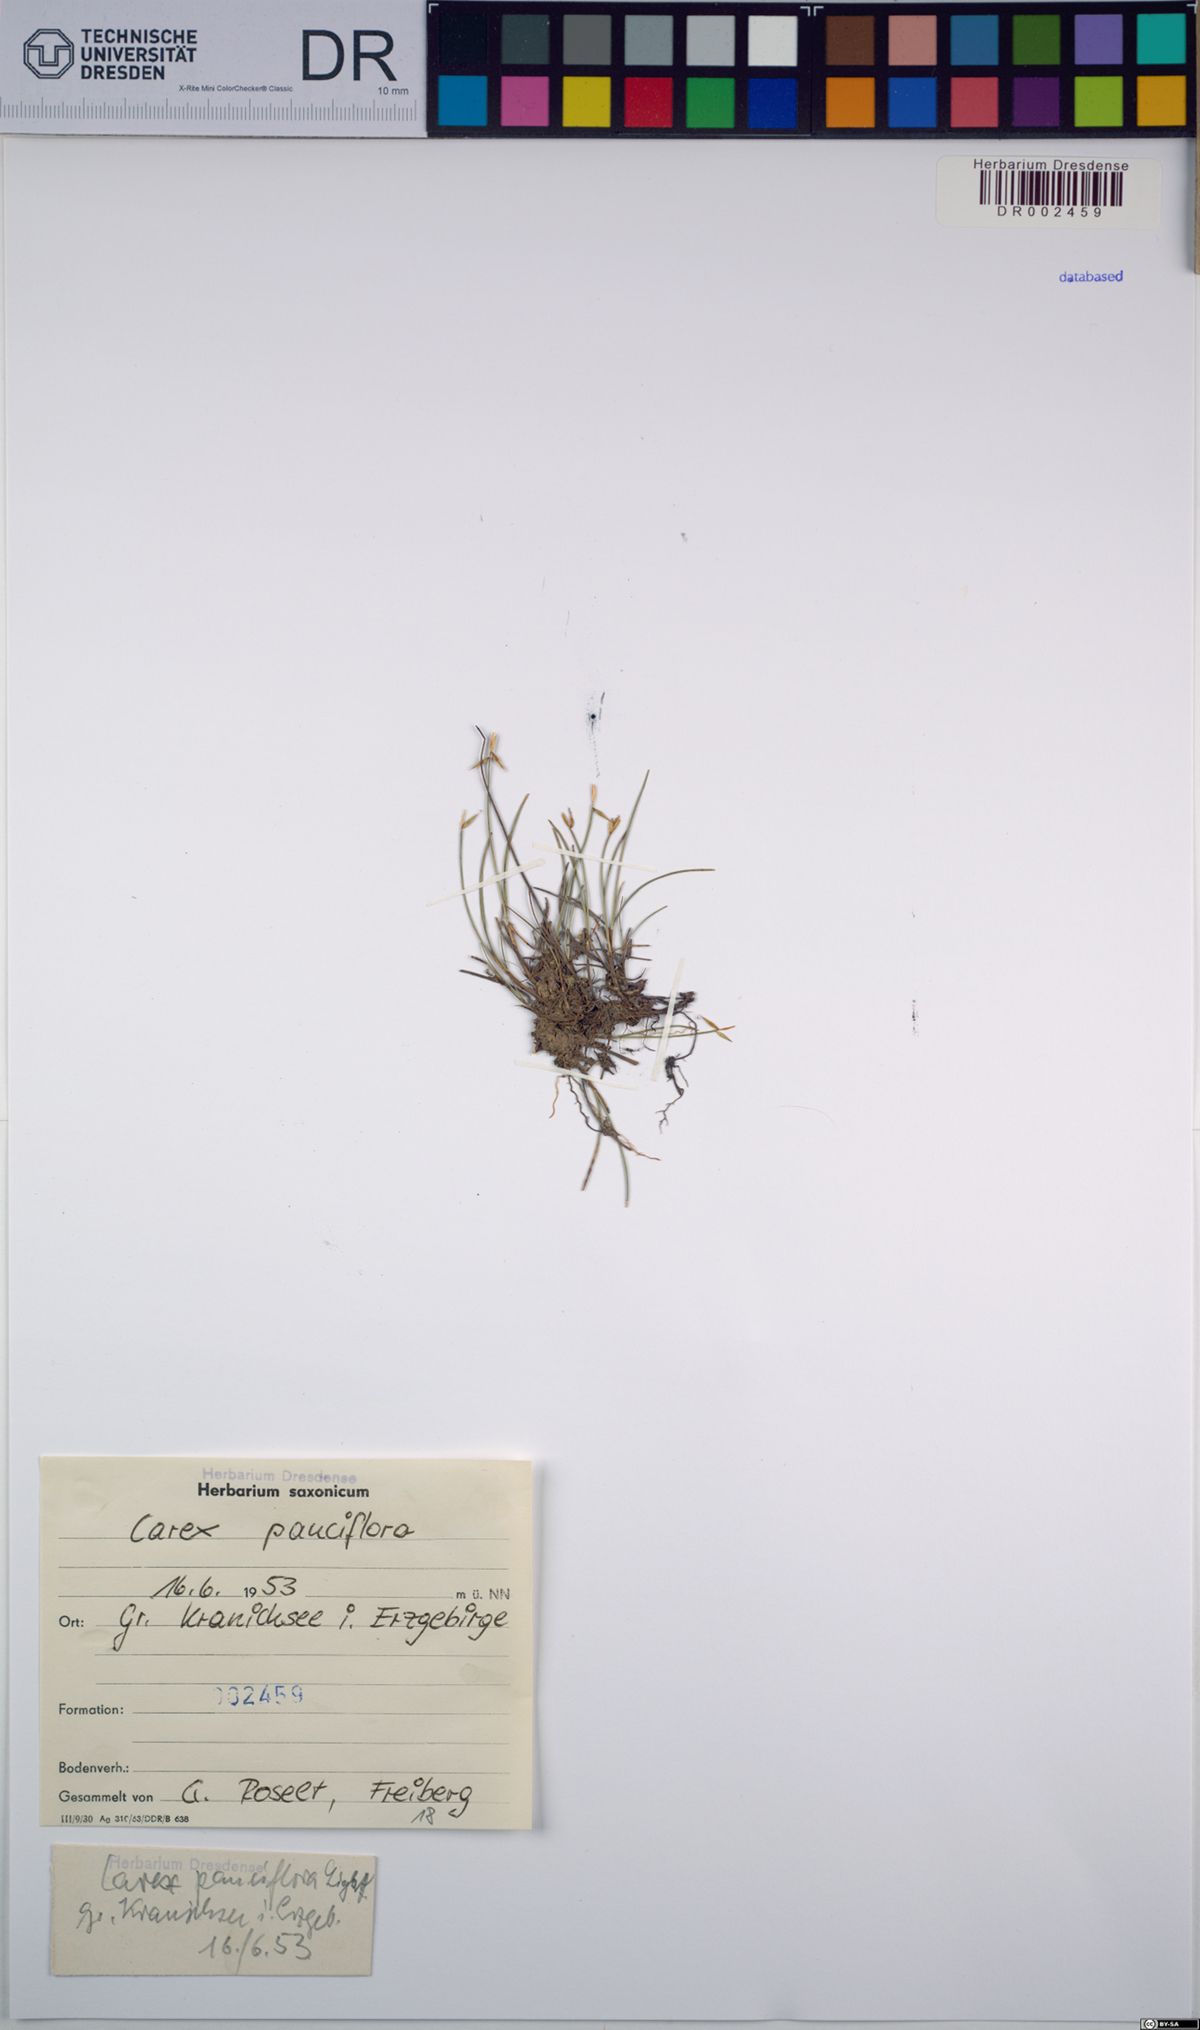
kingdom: Plantae
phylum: Tracheophyta
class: Liliopsida
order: Poales
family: Cyperaceae
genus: Carex
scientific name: Carex pauciflora
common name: Few-flowered sedge
